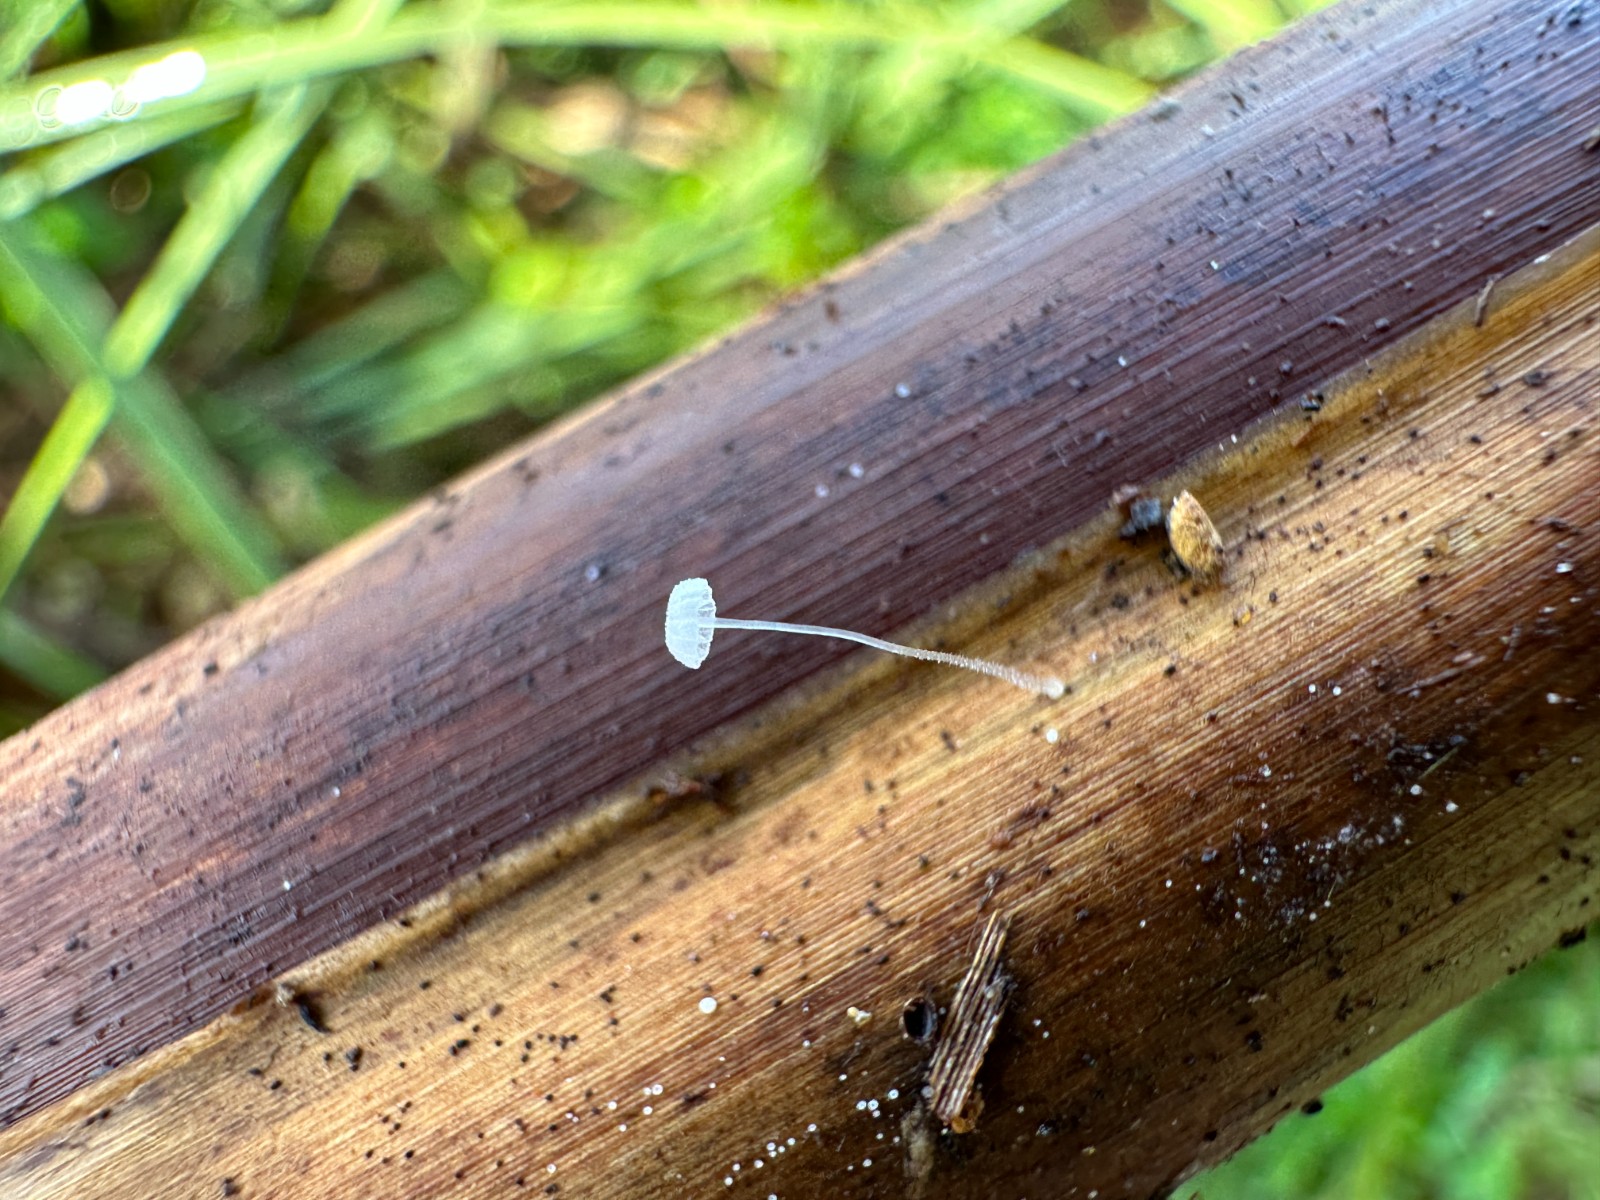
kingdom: Fungi
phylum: Basidiomycota
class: Agaricomycetes
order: Agaricales
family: Mycenaceae
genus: Mycena
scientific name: Mycena tenerrima
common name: pudret huesvamp
